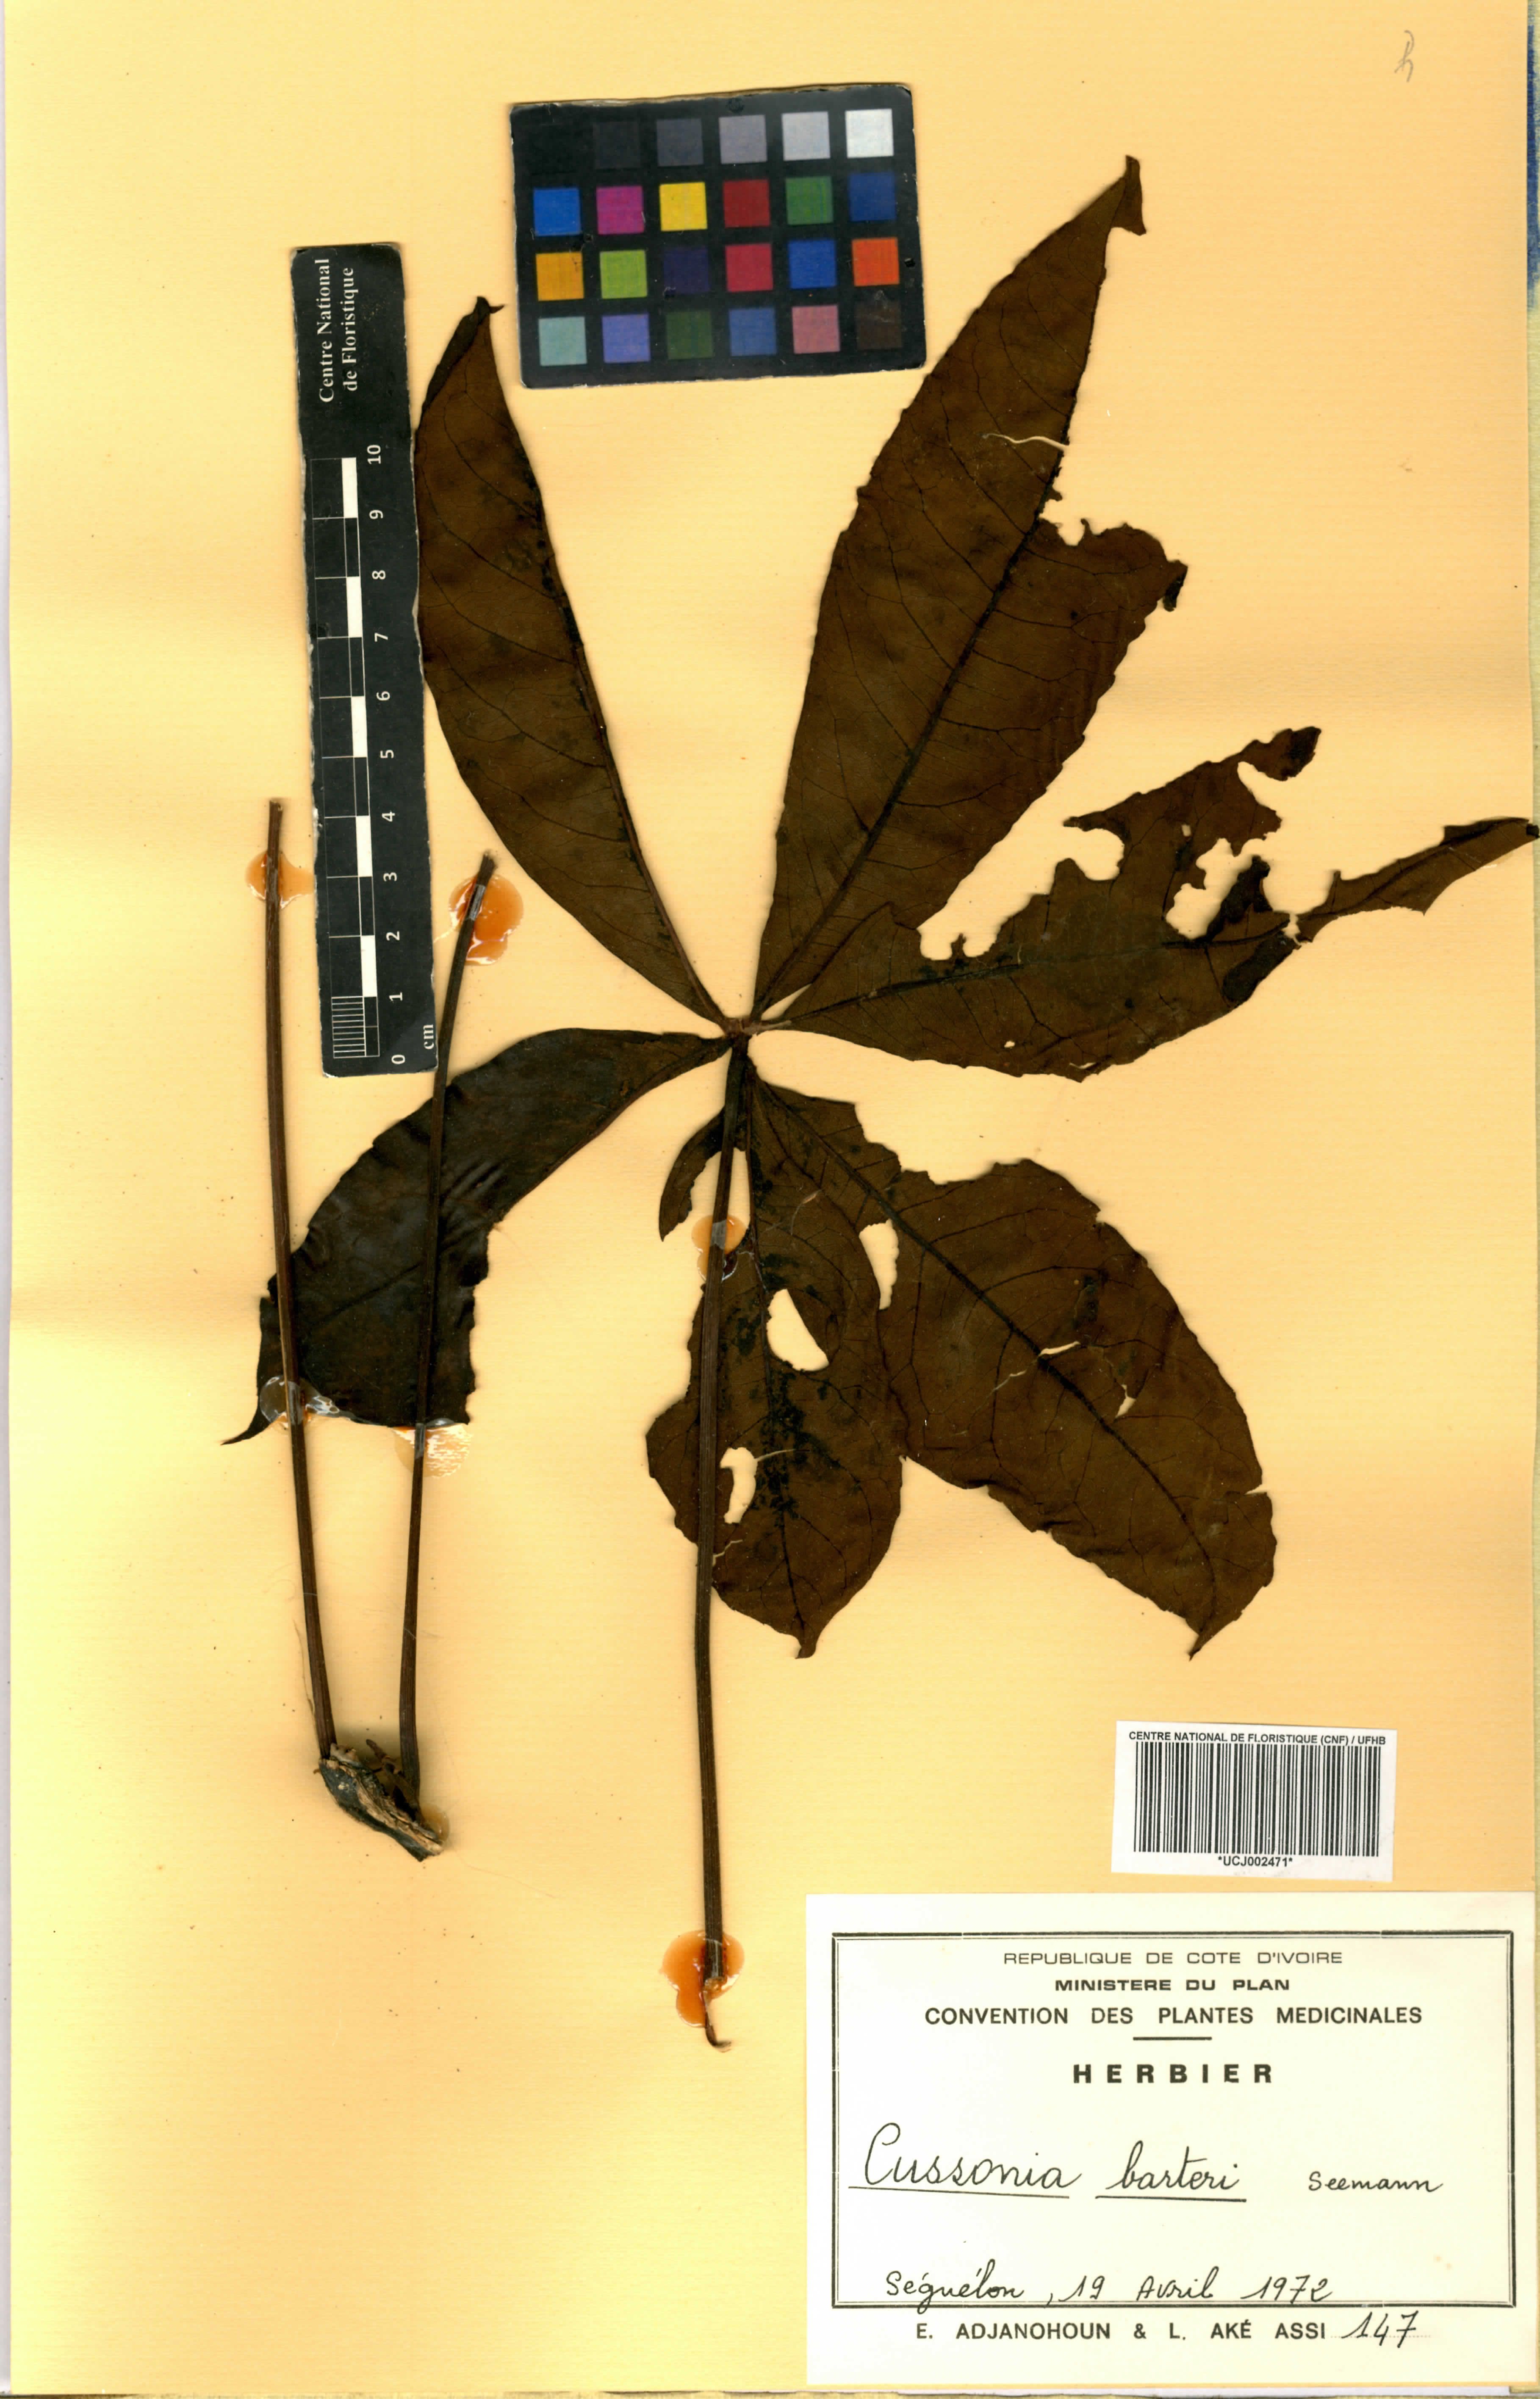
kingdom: Plantae
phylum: Tracheophyta
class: Magnoliopsida
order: Apiales
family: Araliaceae
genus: Cussonia
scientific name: Cussonia arborea
